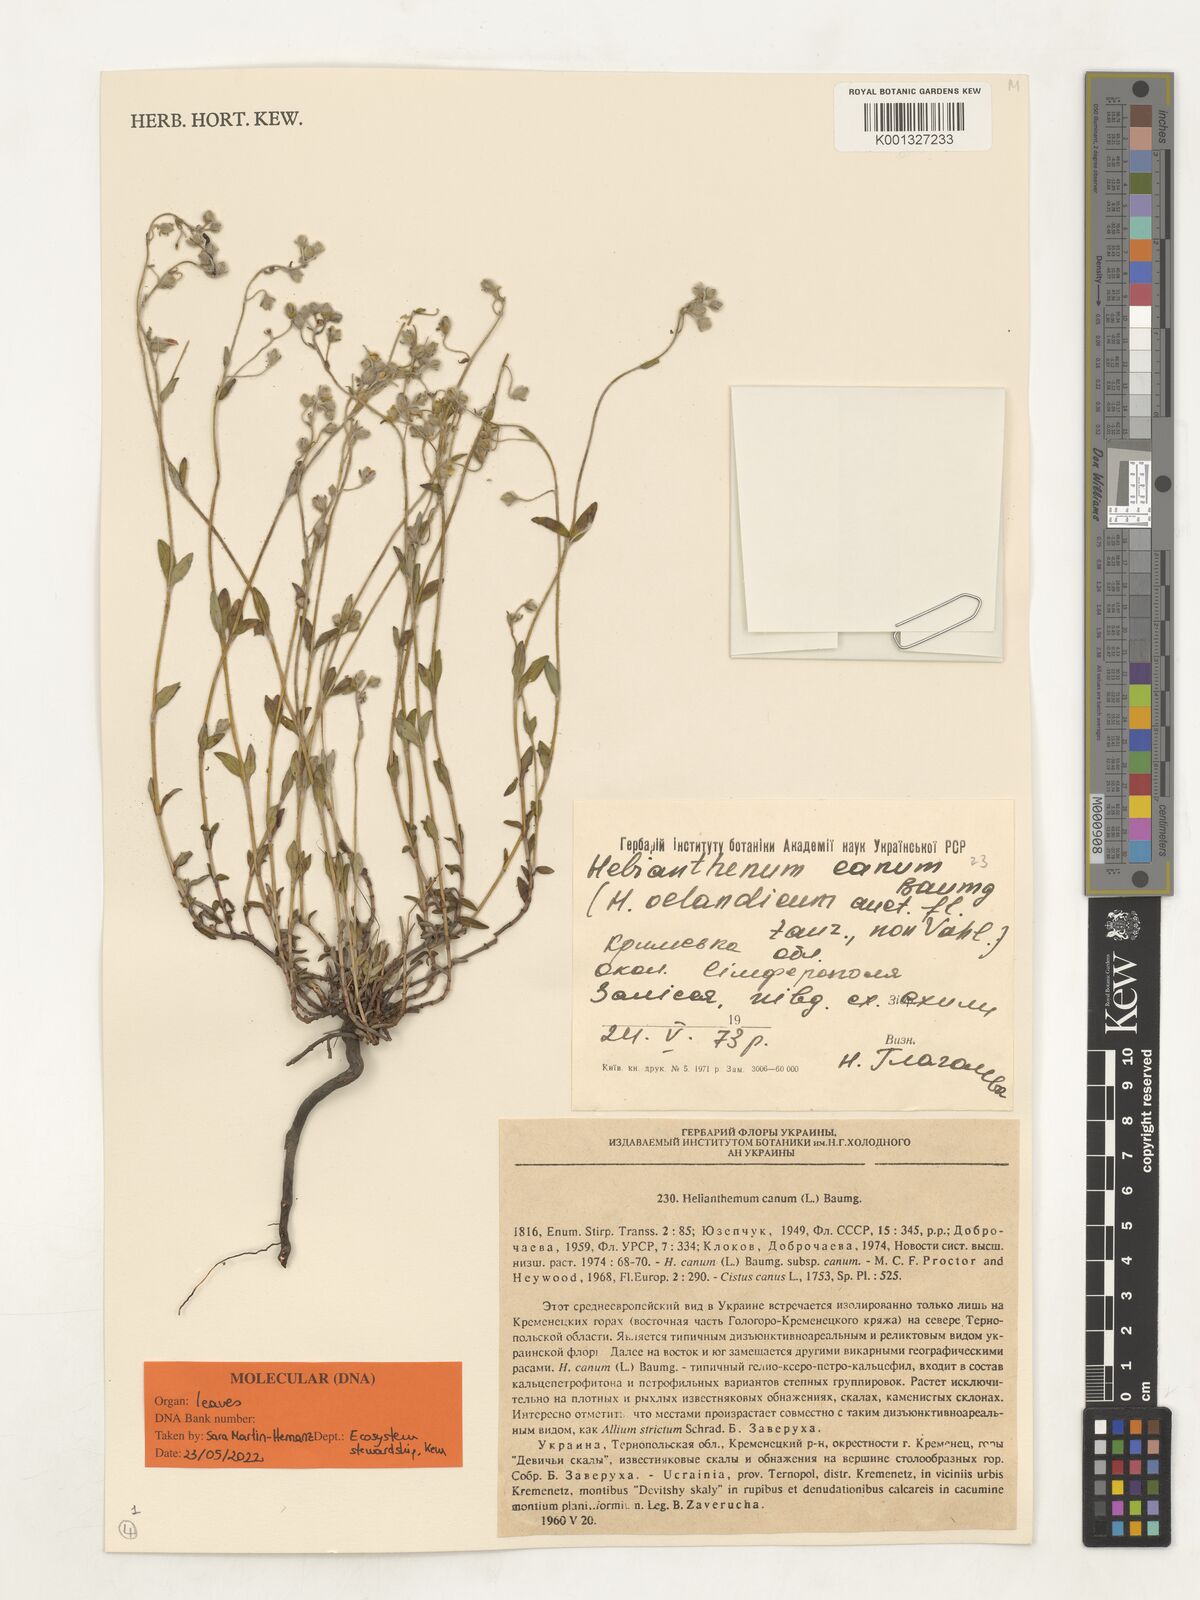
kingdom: Plantae
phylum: Tracheophyta
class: Magnoliopsida
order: Malvales
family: Cistaceae
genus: Helianthemum
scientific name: Helianthemum canum
